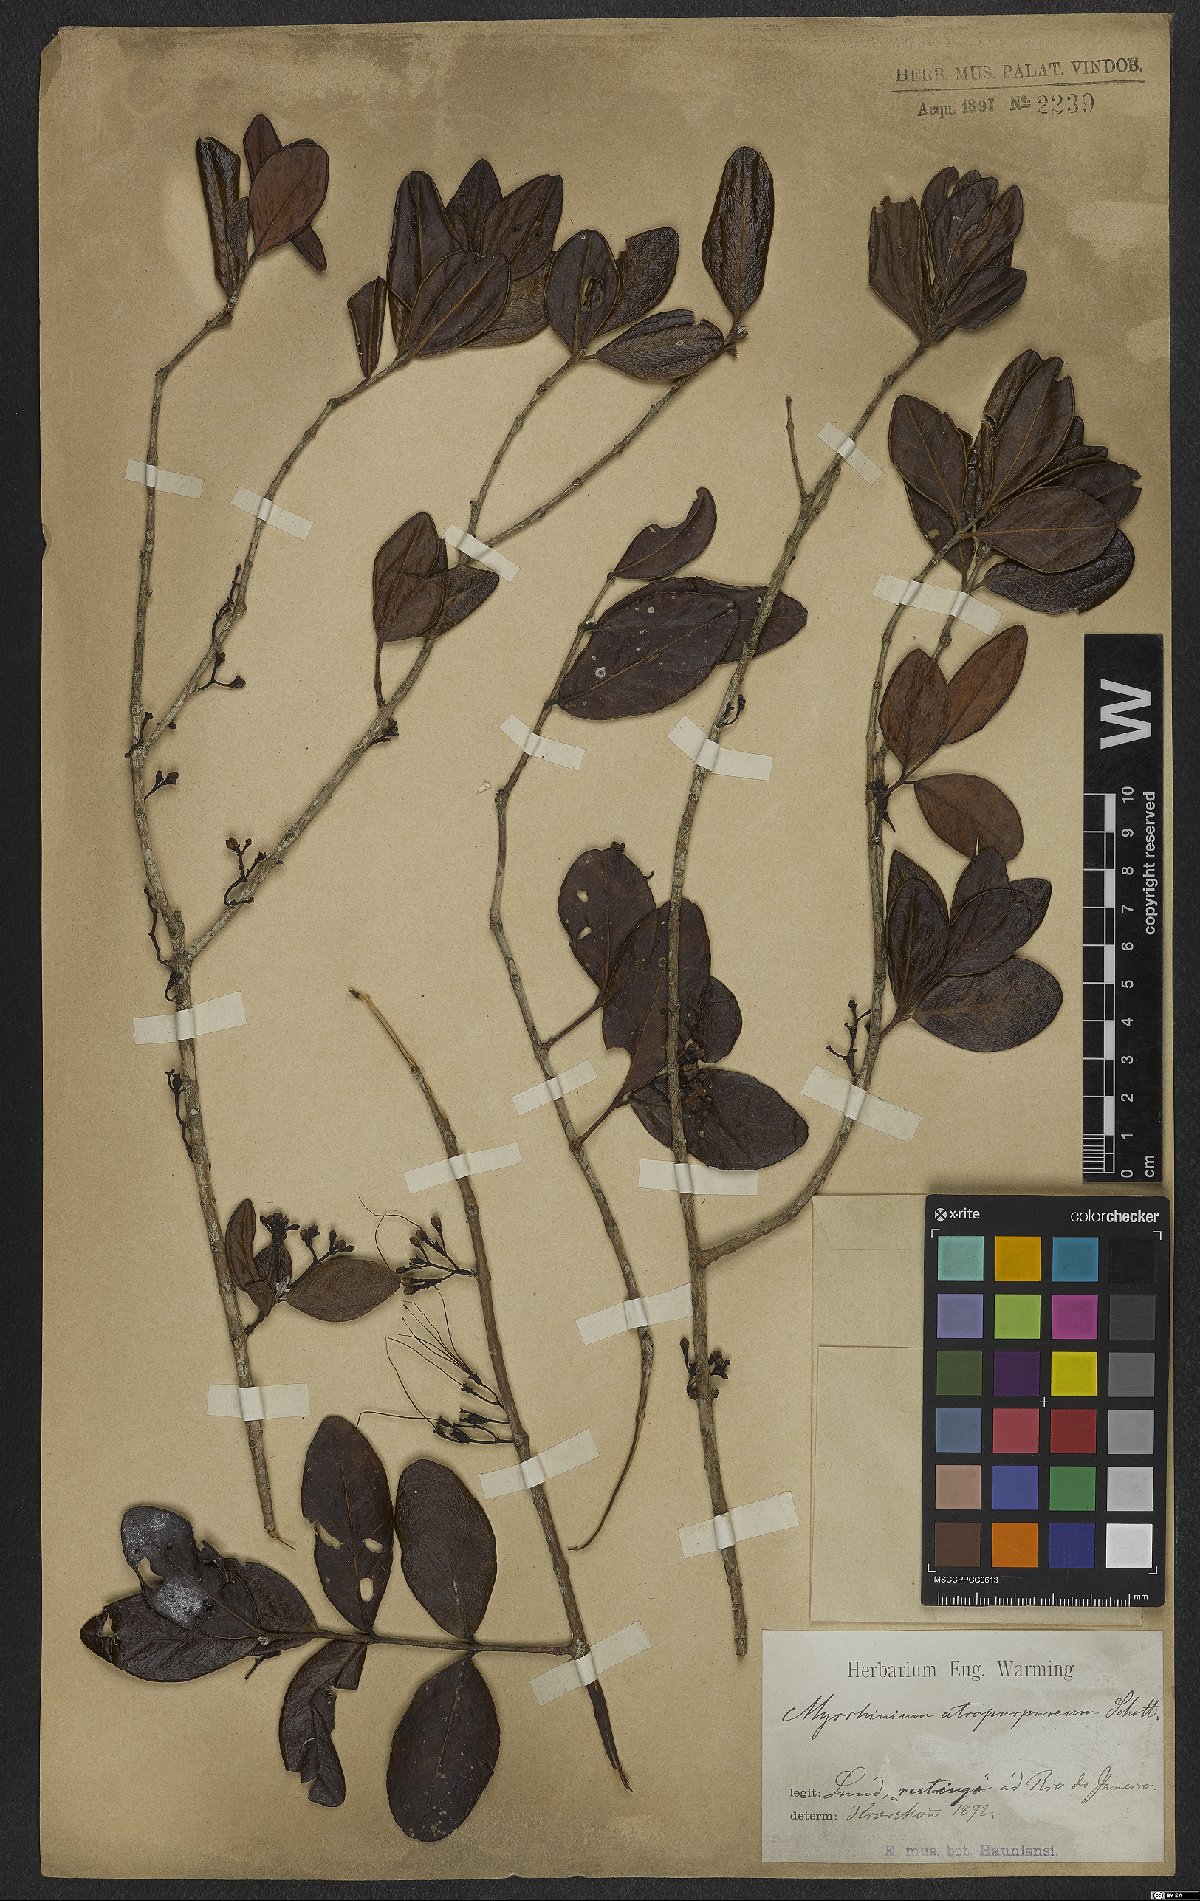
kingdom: Plantae
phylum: Tracheophyta
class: Magnoliopsida
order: Myrtales
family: Myrtaceae
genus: Myrrhinium
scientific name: Myrrhinium atropurpureum
